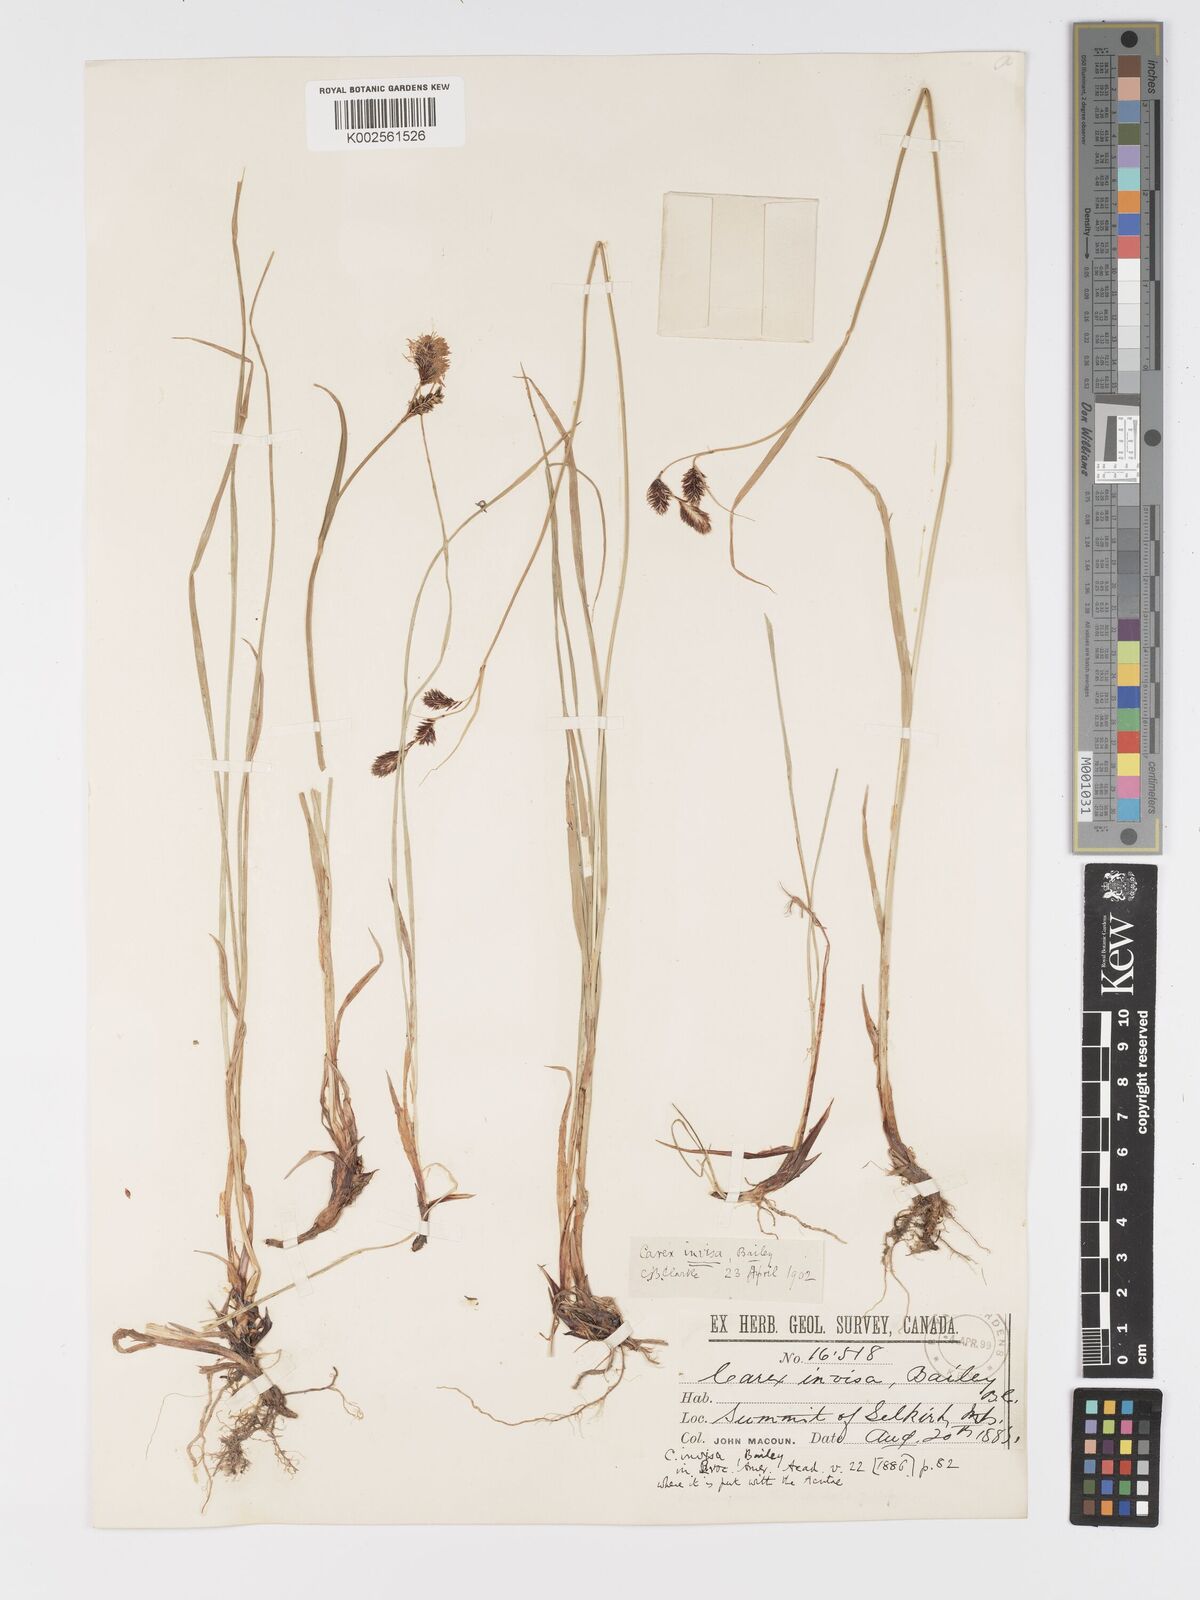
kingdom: Plantae
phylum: Tracheophyta
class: Liliopsida
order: Poales
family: Cyperaceae
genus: Carex
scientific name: Carex spectabilis
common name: Northwestern showy sedge
